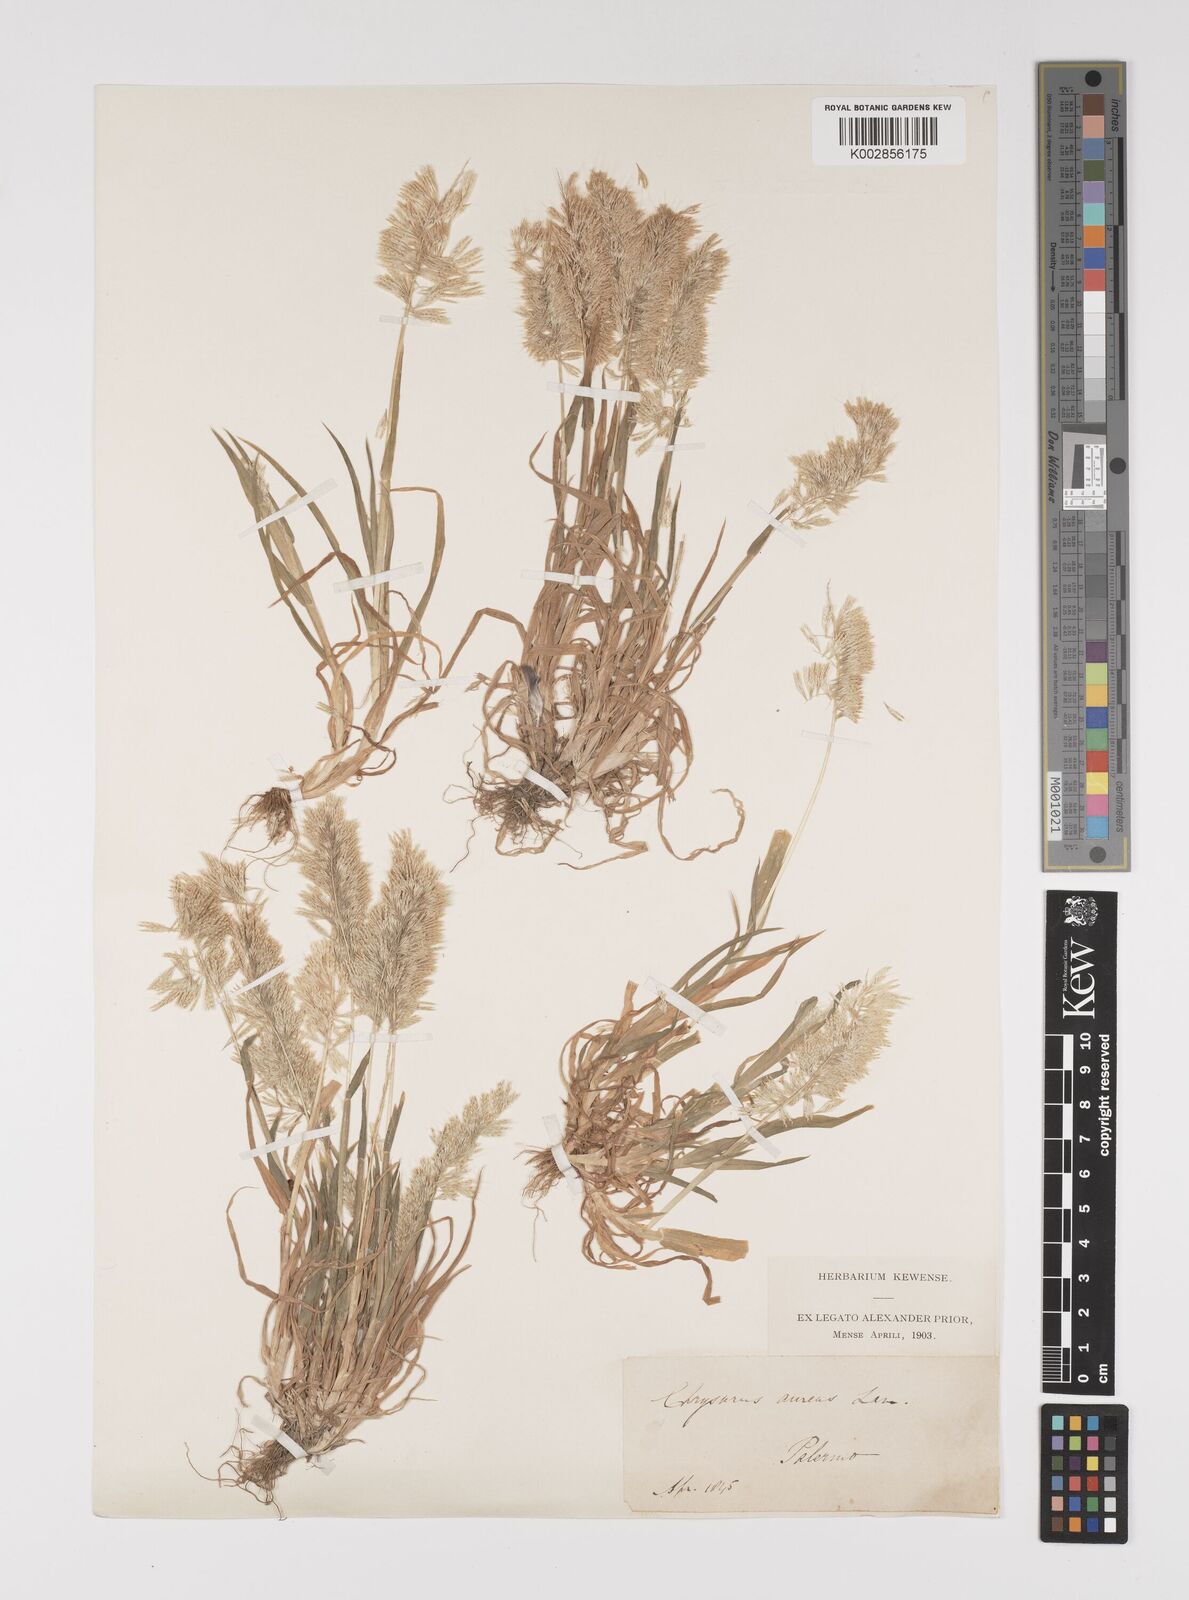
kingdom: Plantae
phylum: Tracheophyta
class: Liliopsida
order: Poales
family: Poaceae
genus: Lamarckia
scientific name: Lamarckia aurea
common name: Golden dog's-tail
